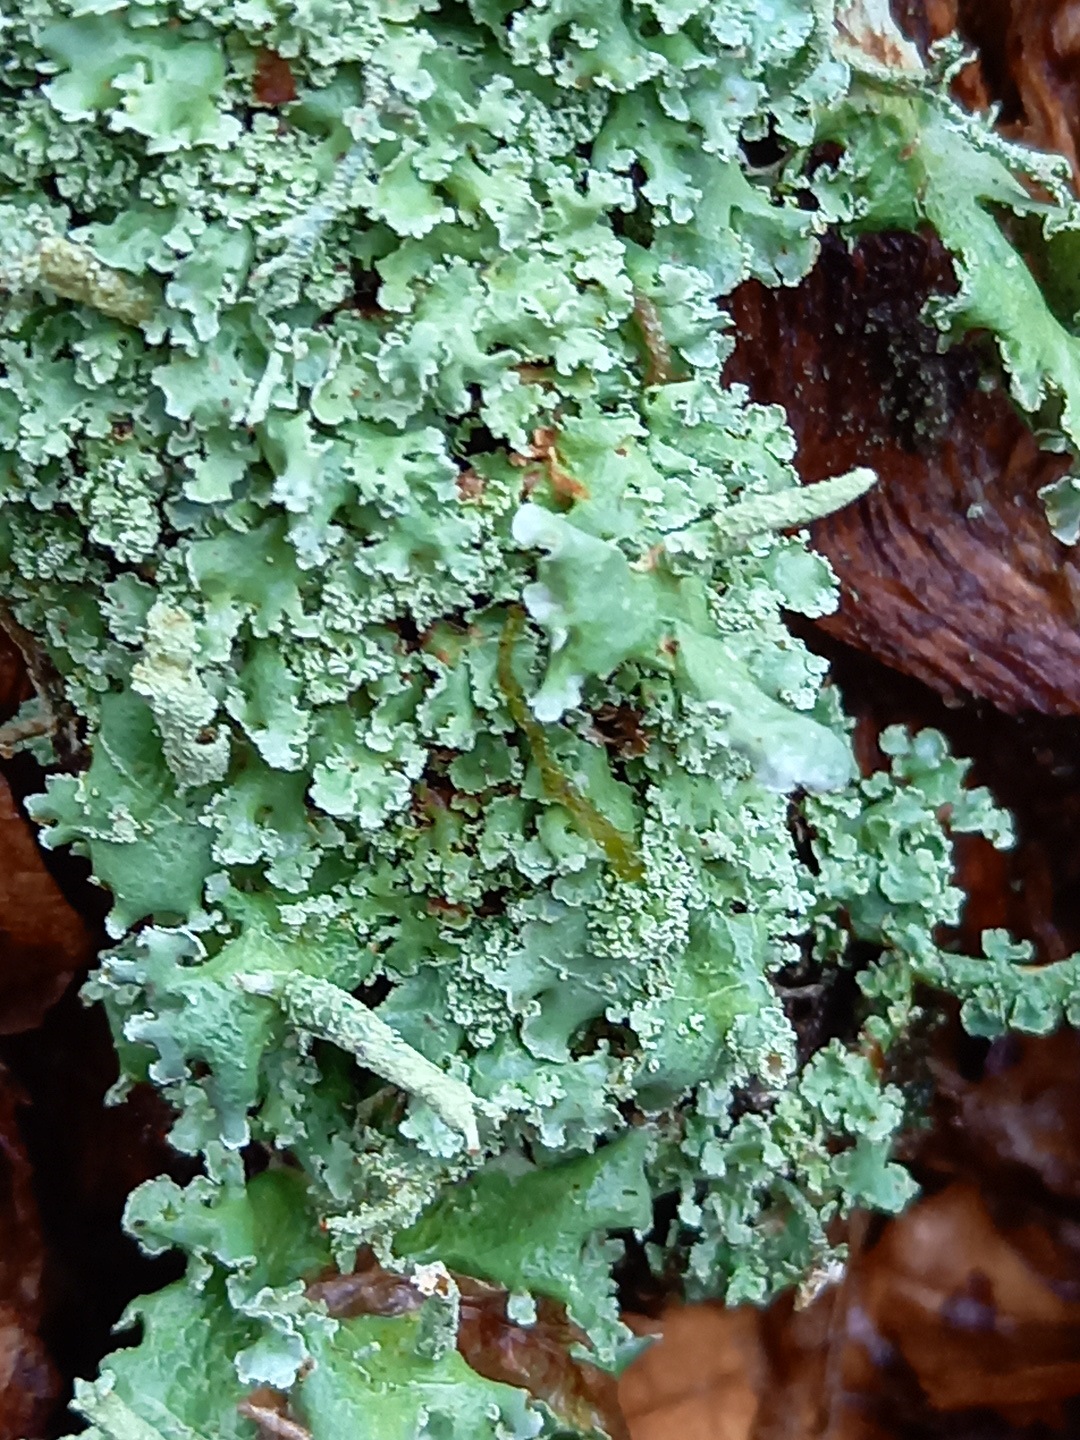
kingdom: Fungi
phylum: Ascomycota
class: Lecanoromycetes
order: Lecanorales
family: Cladoniaceae
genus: Cladonia
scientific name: Cladonia
